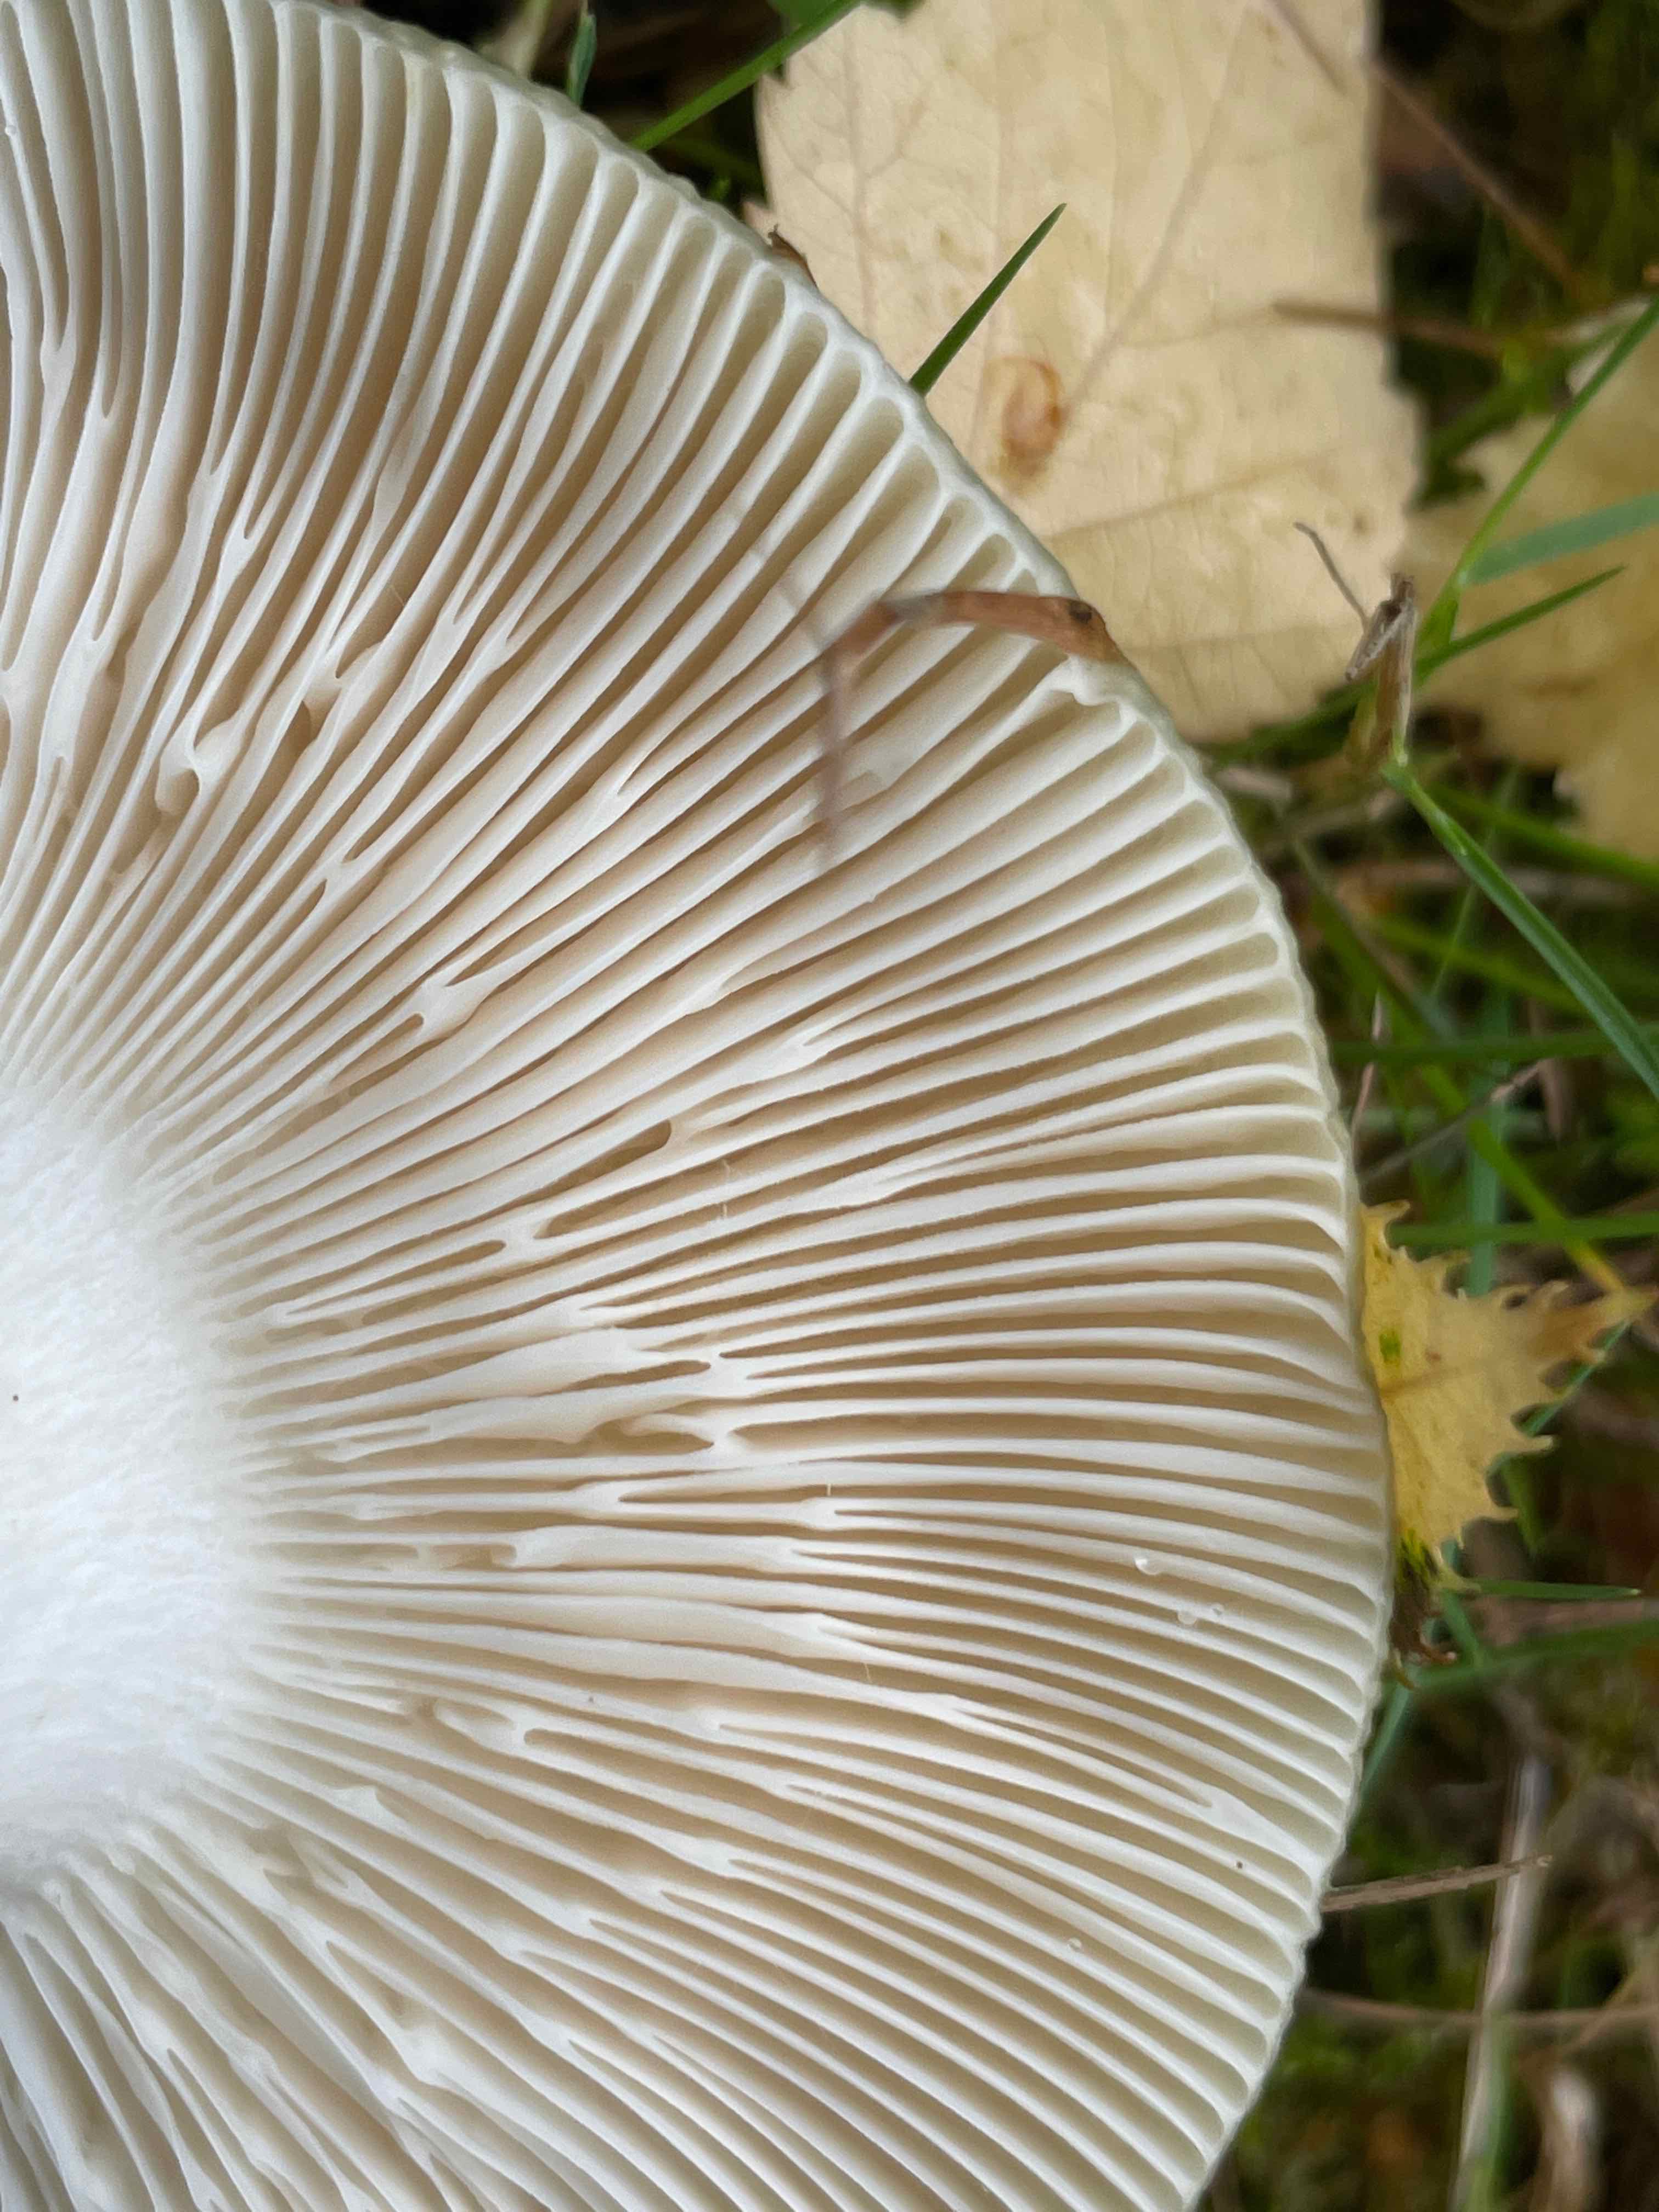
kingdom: Fungi
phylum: Basidiomycota
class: Agaricomycetes
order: Russulales
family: Russulaceae
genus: Russula
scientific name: Russula heterophylla
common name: gaffelbladet skørhat
